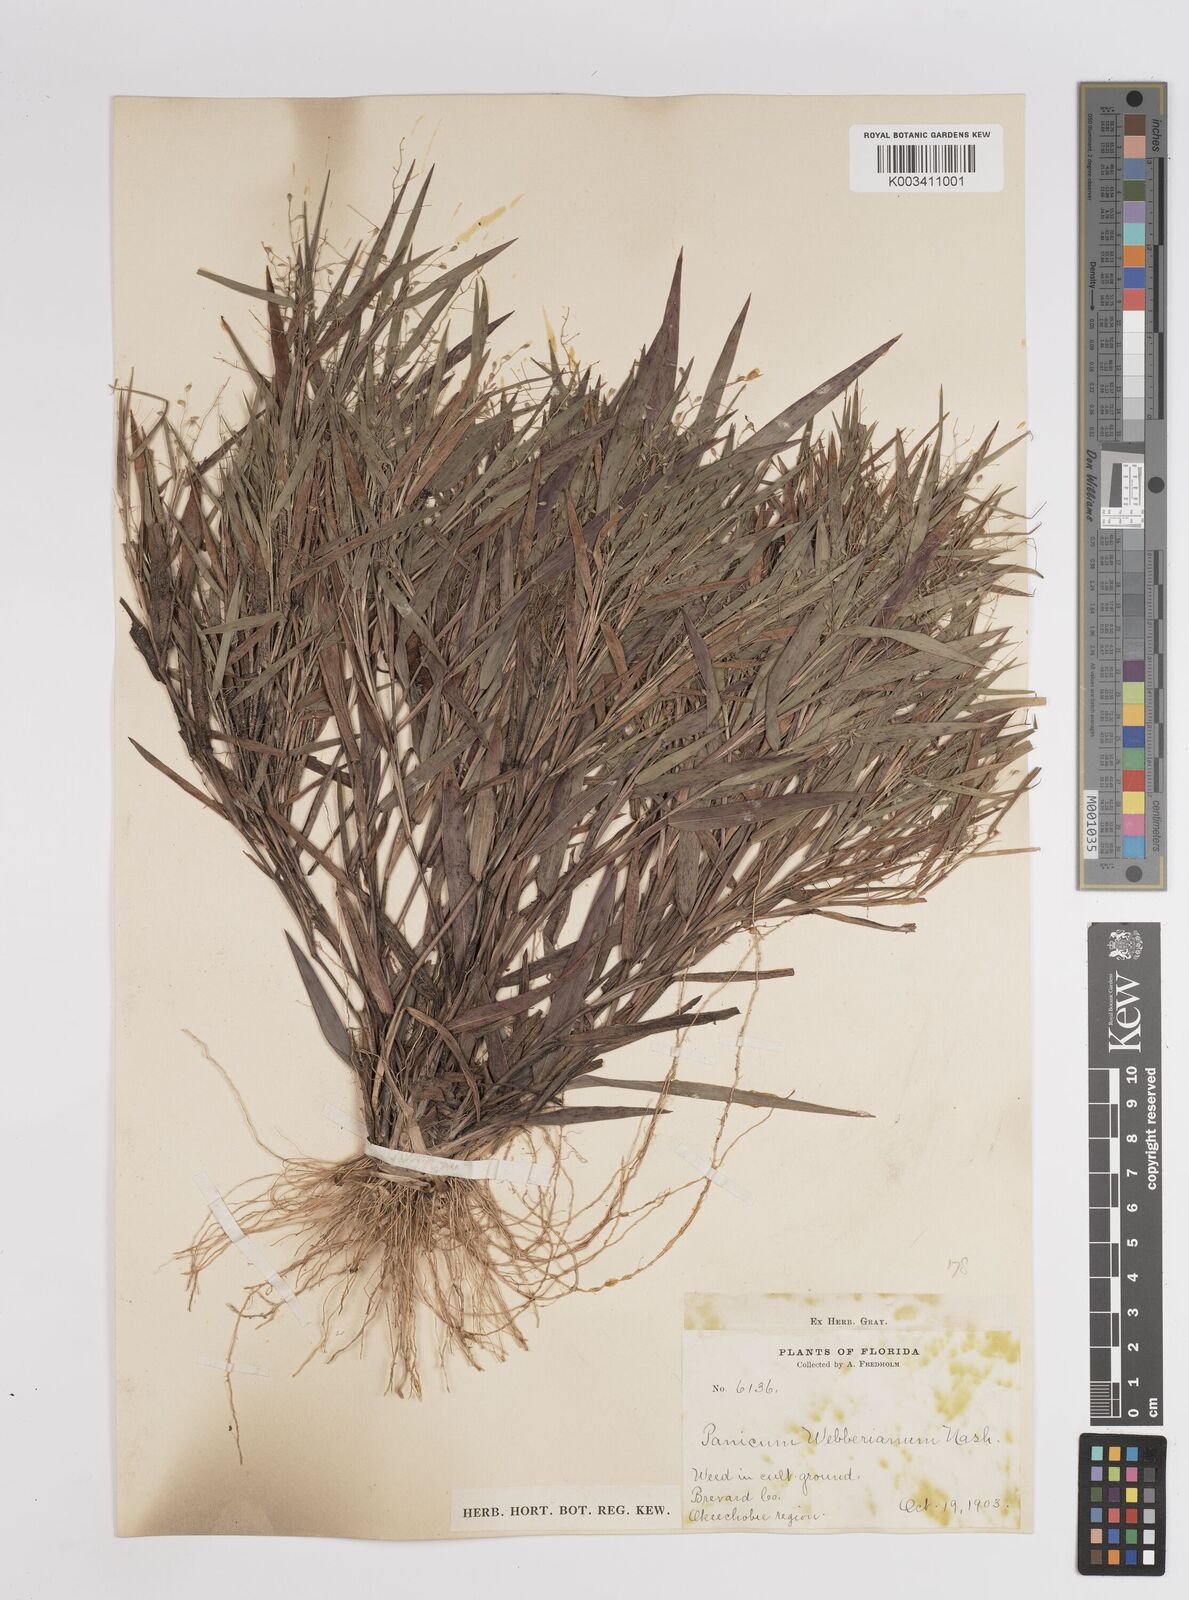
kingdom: Plantae
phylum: Tracheophyta
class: Liliopsida
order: Poales
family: Poaceae
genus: Dichanthelium
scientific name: Dichanthelium webberianum
